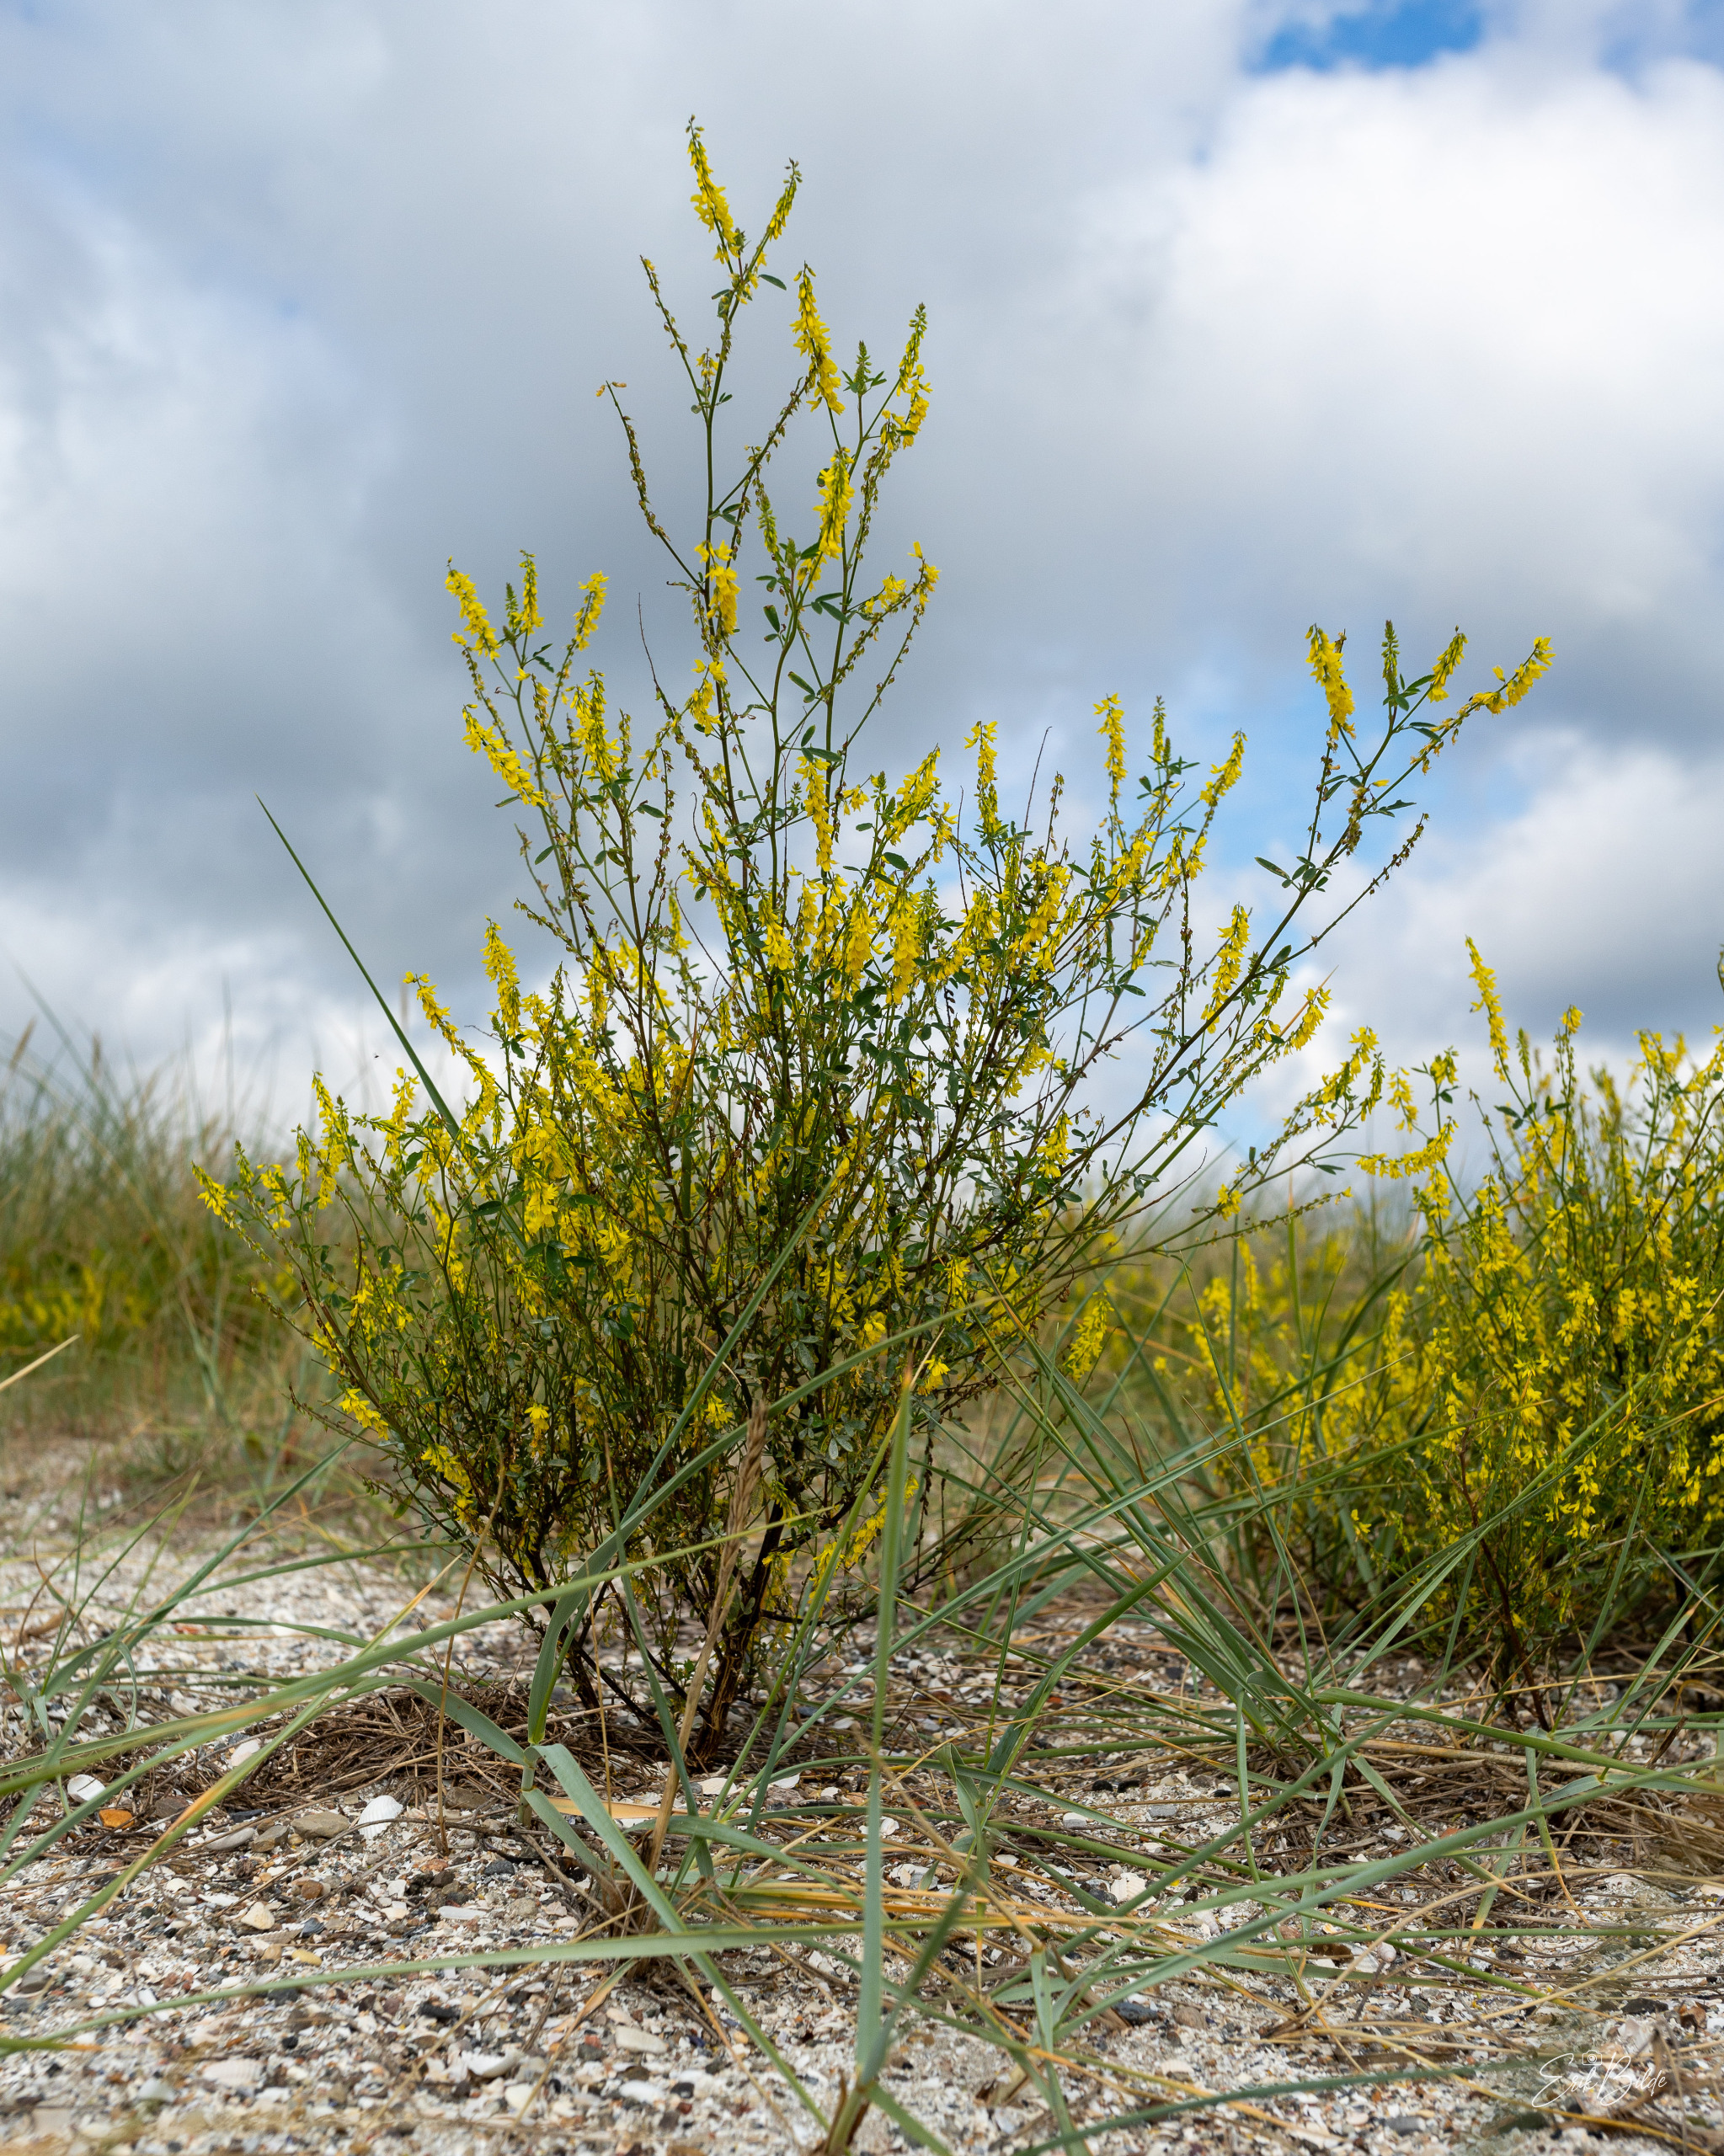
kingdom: Plantae
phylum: Tracheophyta
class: Magnoliopsida
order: Fabales
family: Fabaceae
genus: Melilotus
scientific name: Melilotus
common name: Stenkløverslægten
